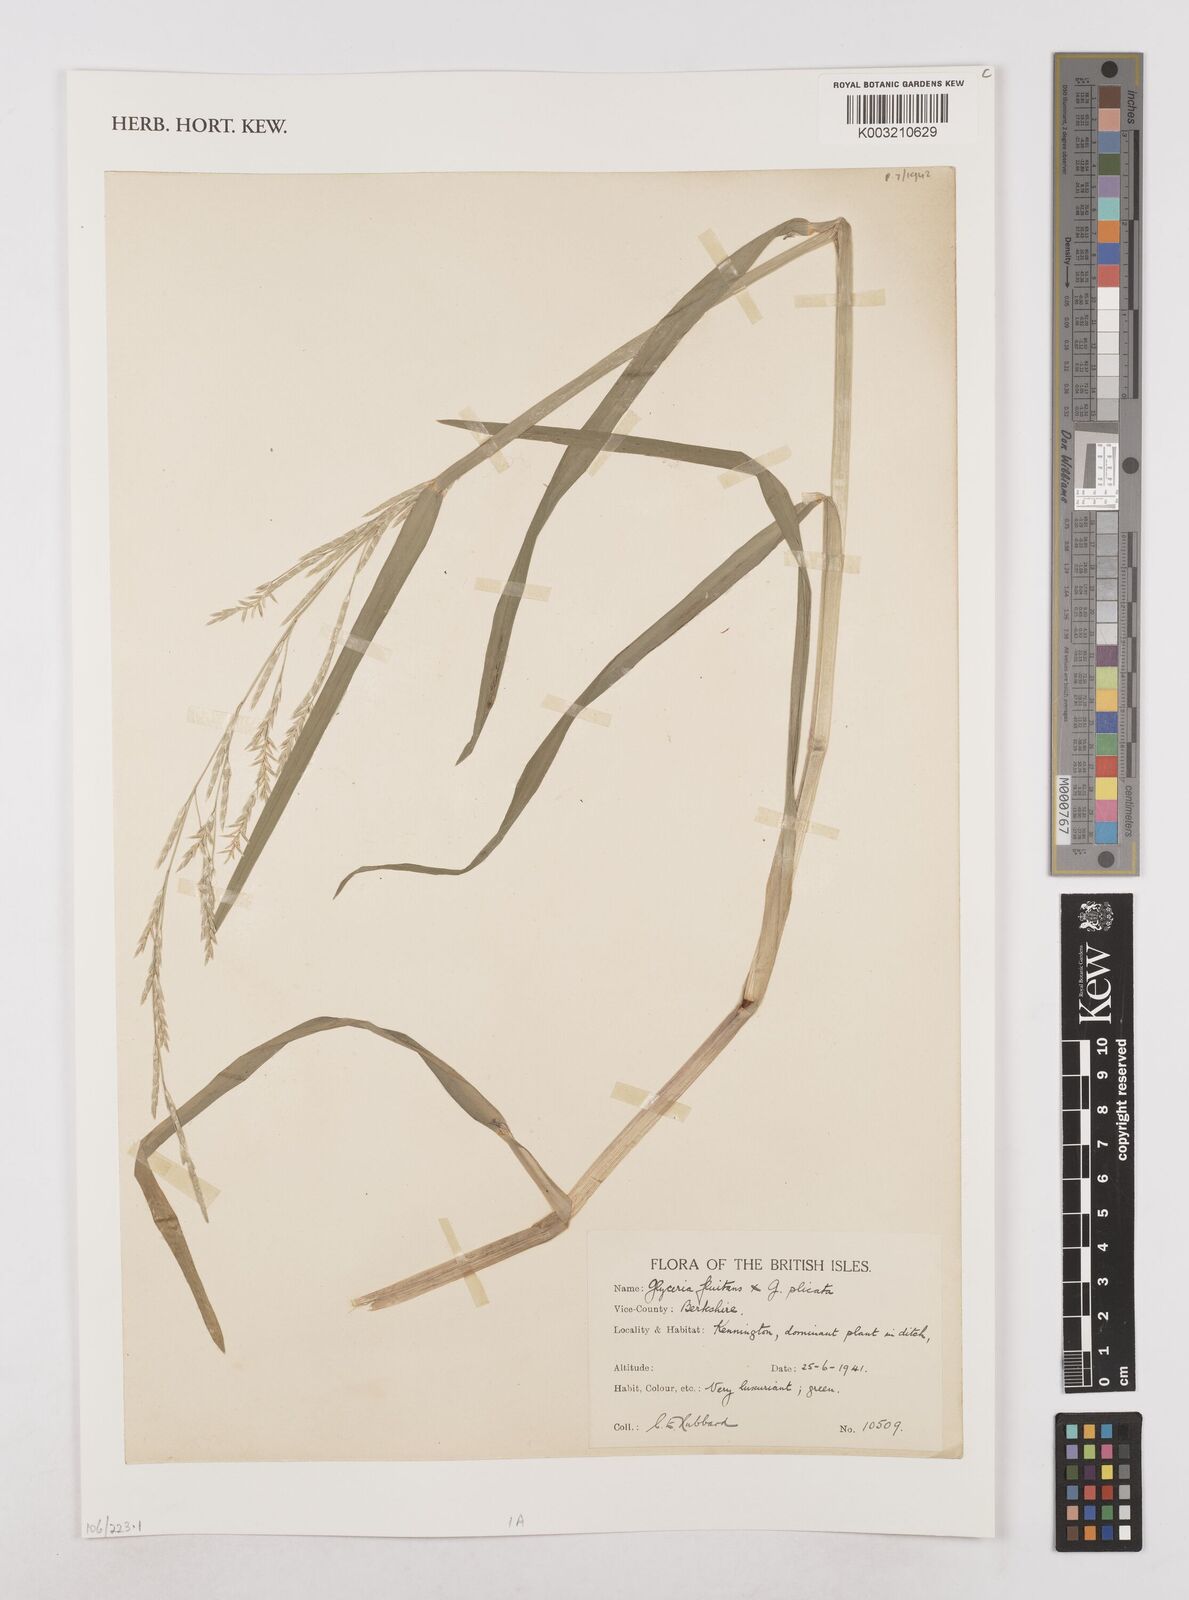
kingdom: Plantae
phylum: Tracheophyta
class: Liliopsida
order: Poales
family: Poaceae
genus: Glyceria
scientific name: Glyceria fluitans
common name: Floating sweet-grass
